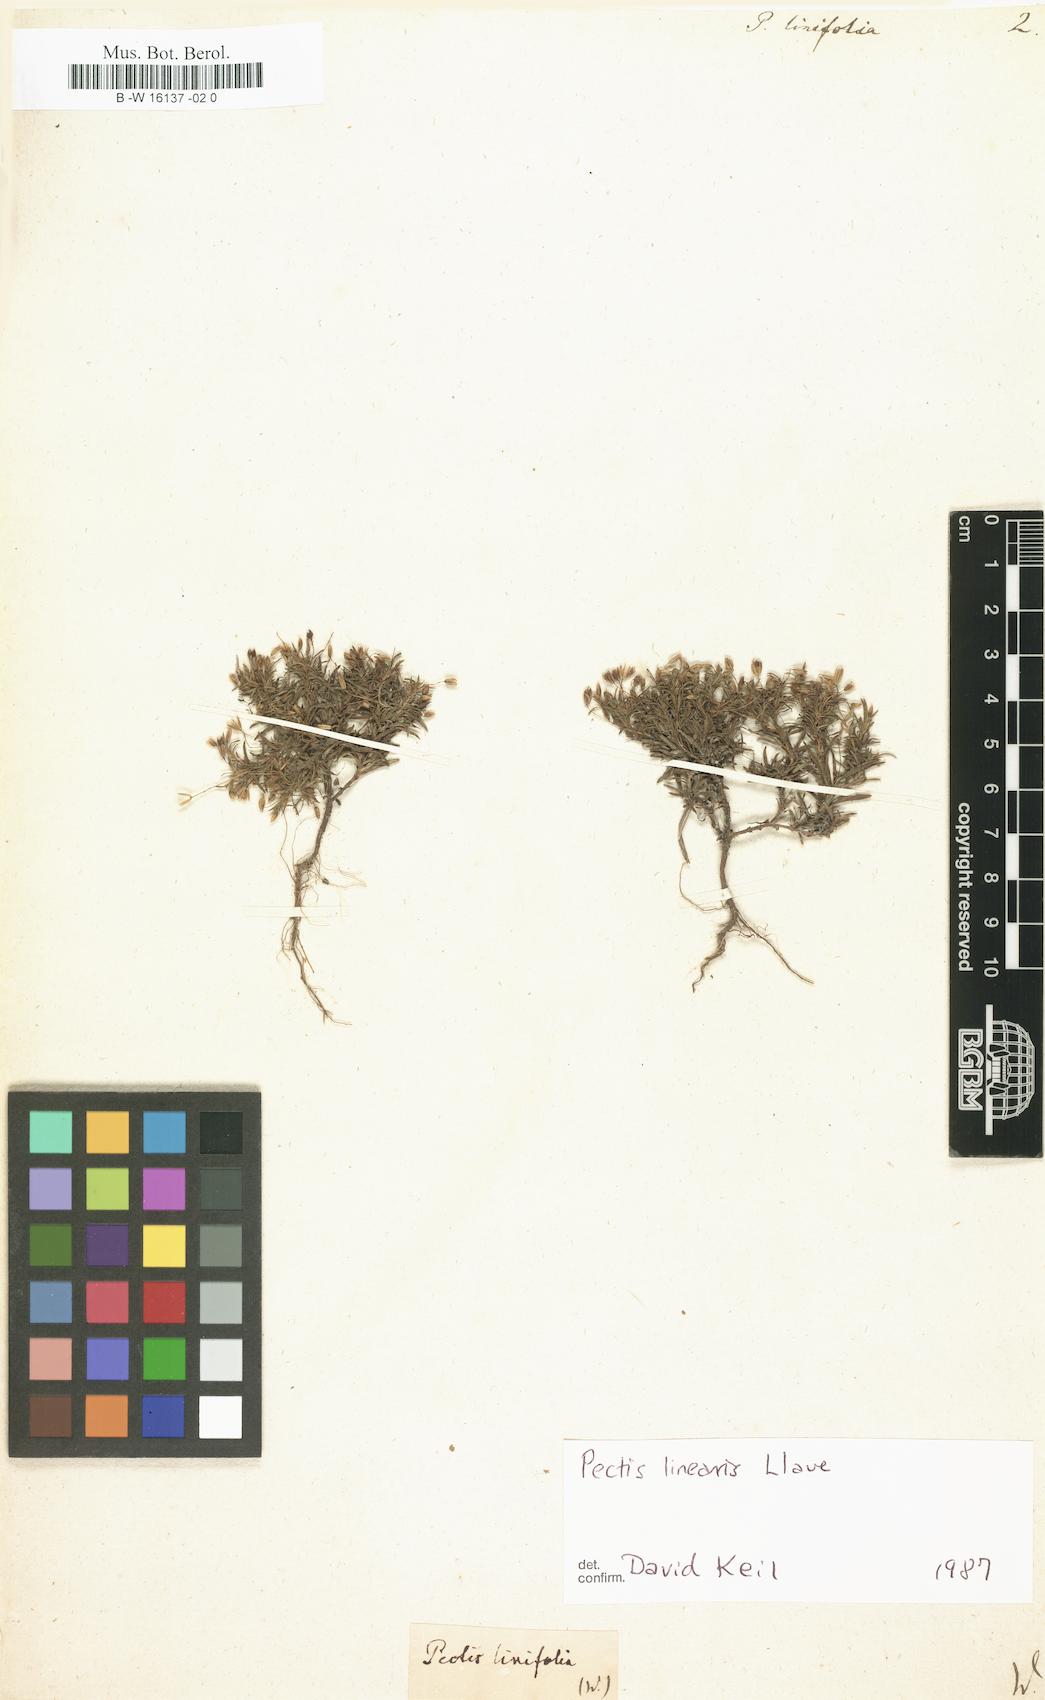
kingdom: Plantae
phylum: Tracheophyta
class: Magnoliopsida
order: Asterales
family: Asteraceae
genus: Pectis
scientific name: Pectis linifolia
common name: Romero macho
